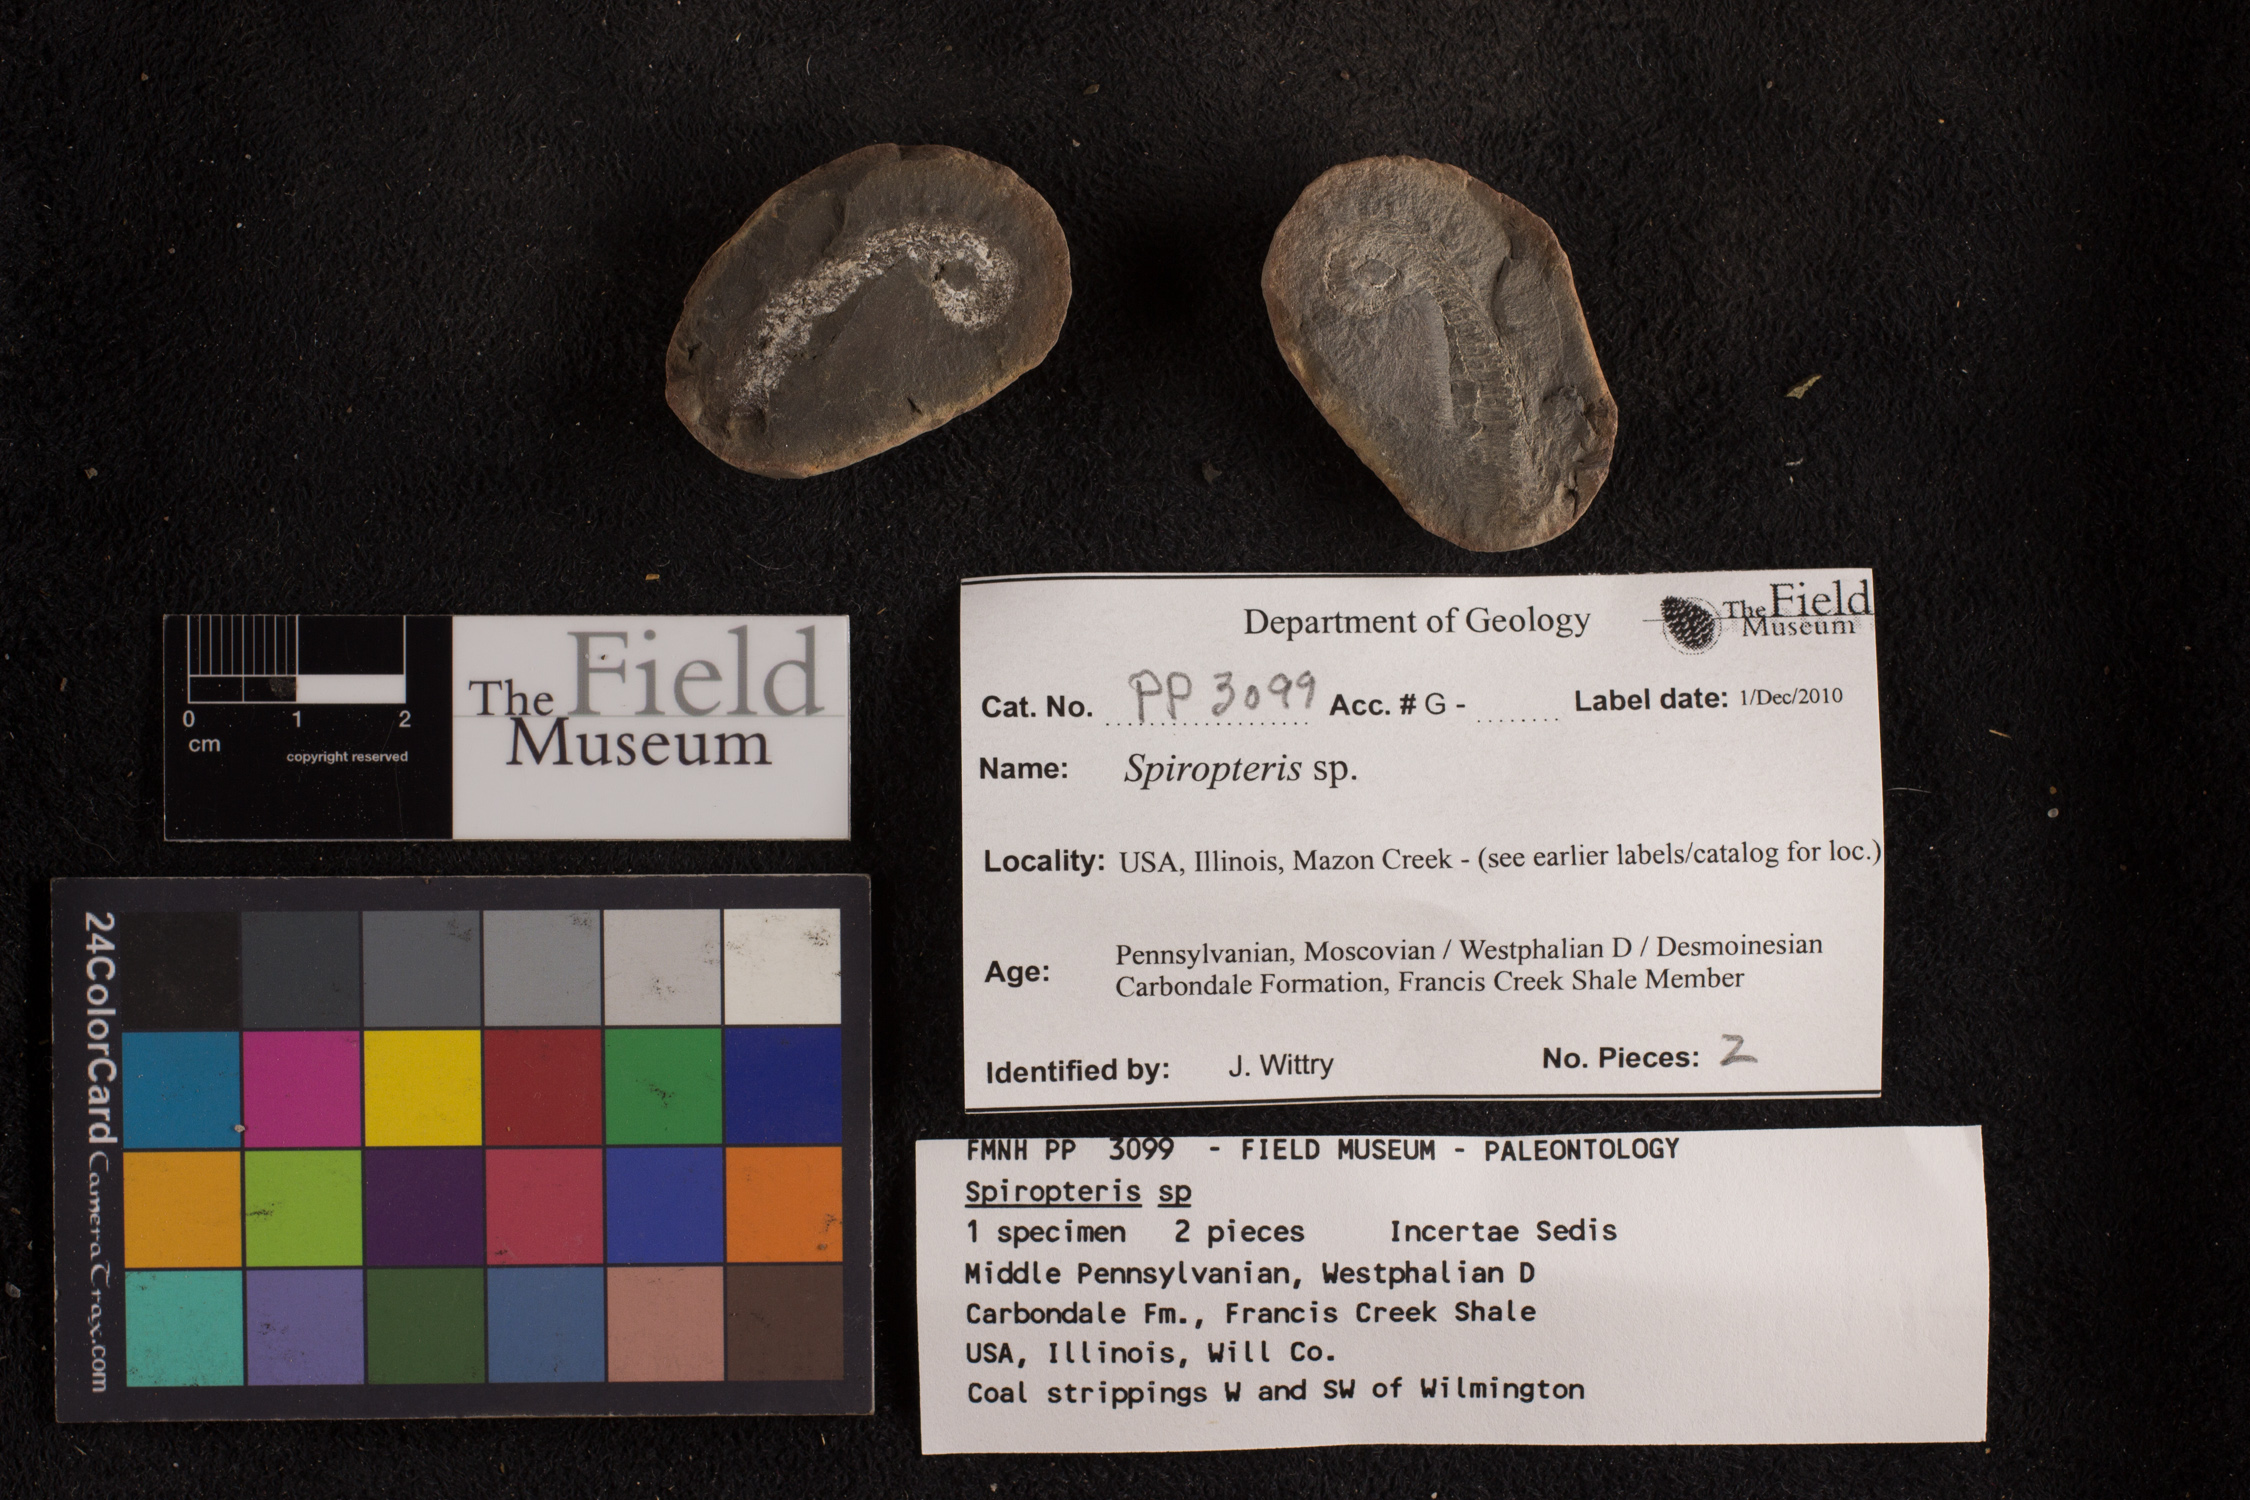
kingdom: Plantae
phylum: Tracheophyta
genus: Spiropteris
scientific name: Spiropteris
